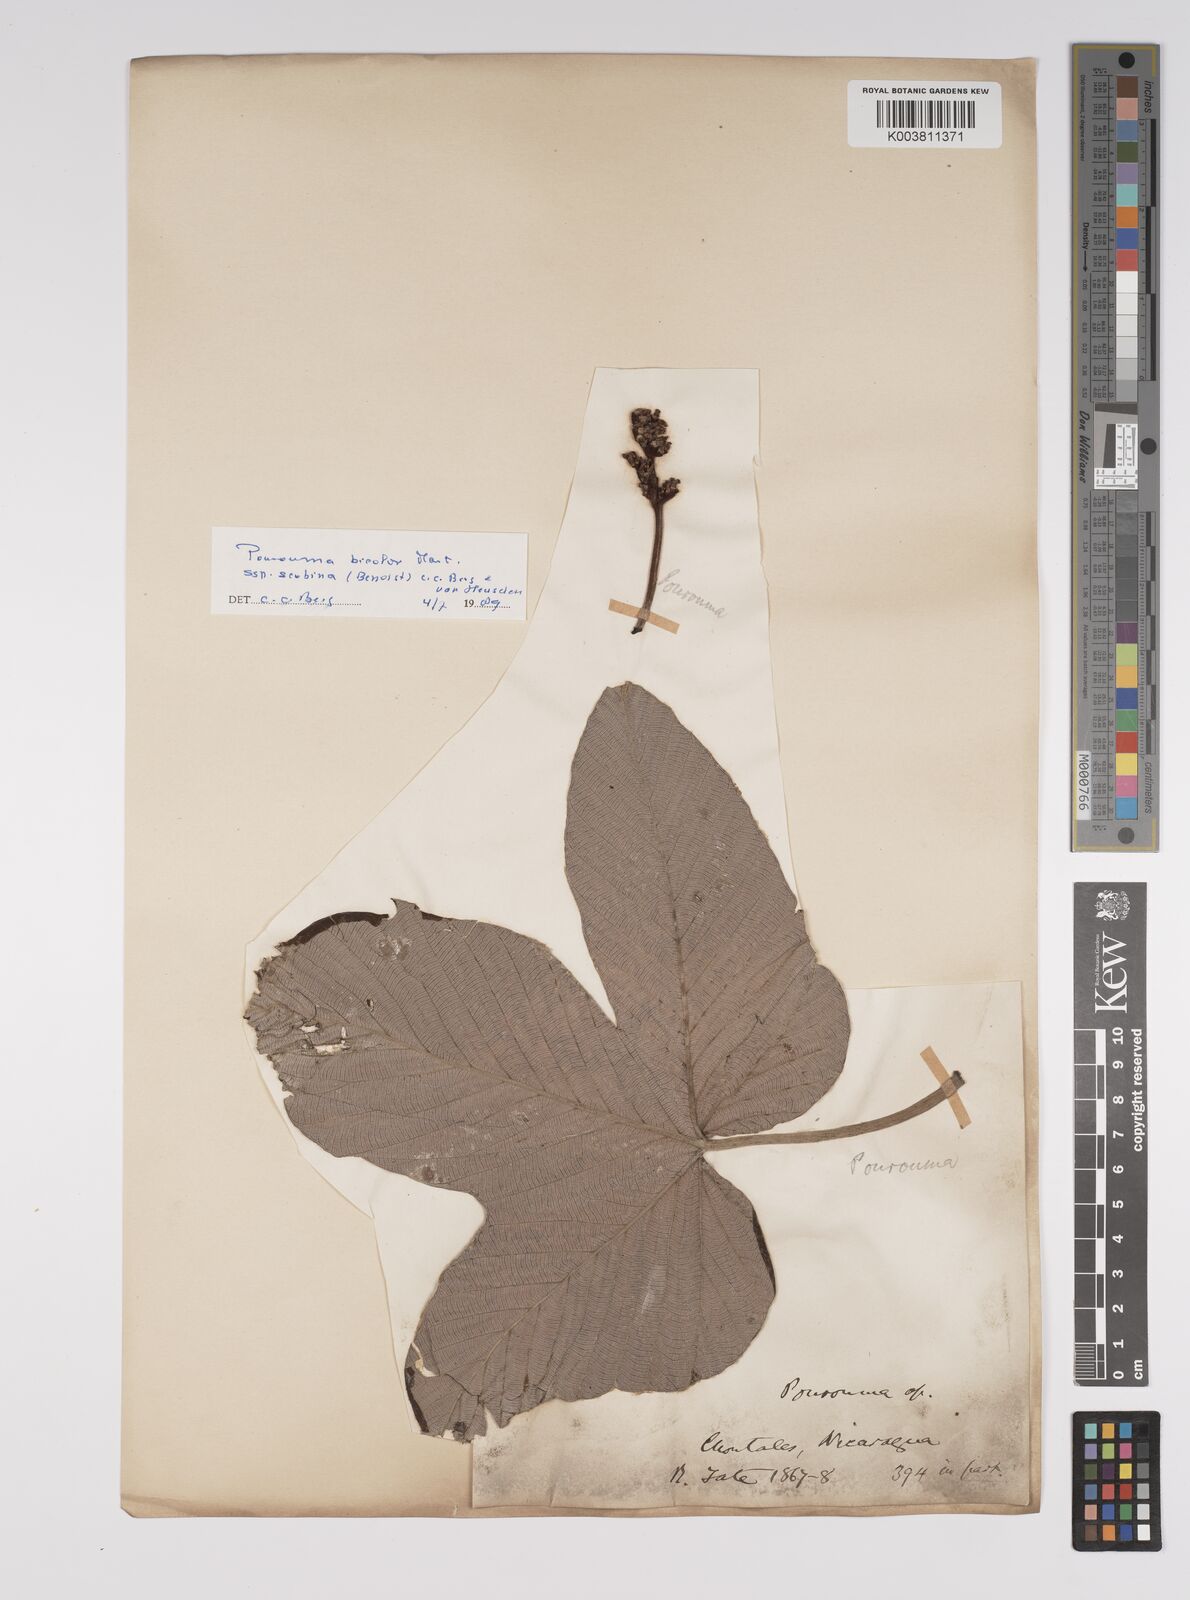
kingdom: Plantae
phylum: Tracheophyta
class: Magnoliopsida
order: Rosales
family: Urticaceae
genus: Pourouma
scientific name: Pourouma
